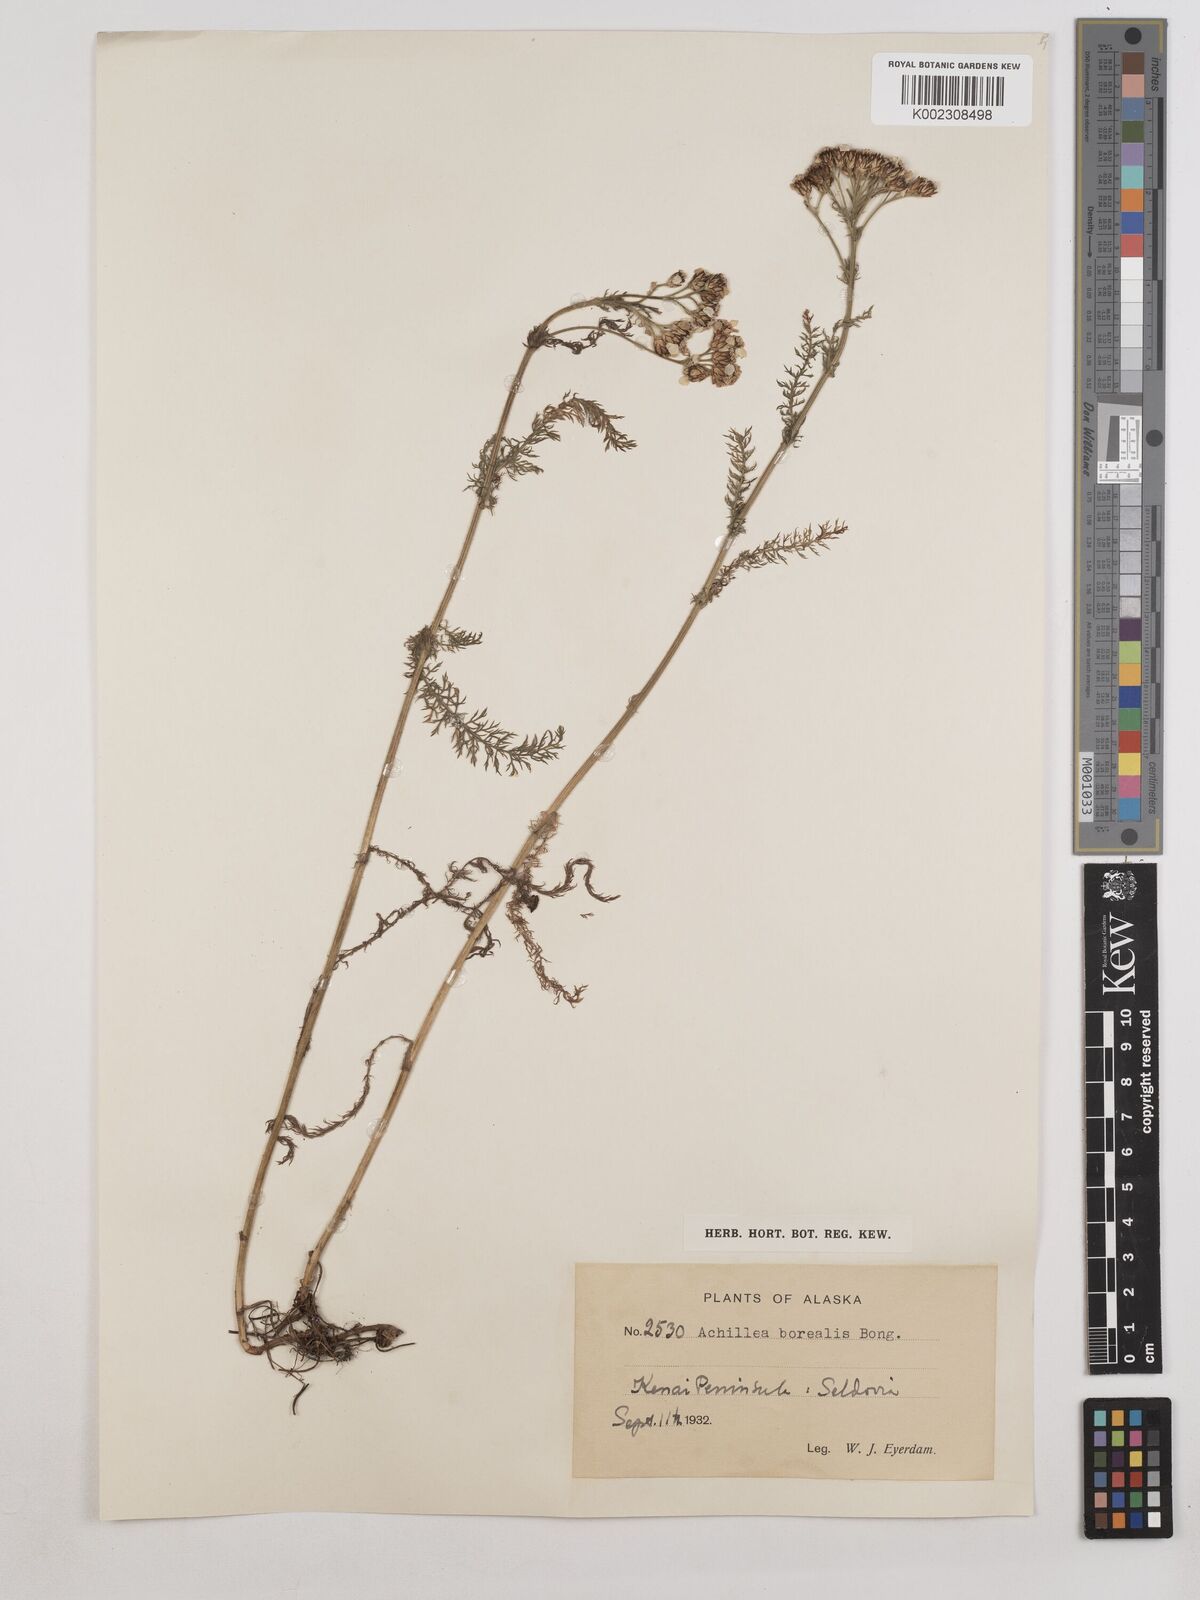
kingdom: Plantae
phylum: Tracheophyta
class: Magnoliopsida
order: Asterales
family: Asteraceae
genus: Achillea
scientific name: Achillea millefolium
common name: Yarrow
